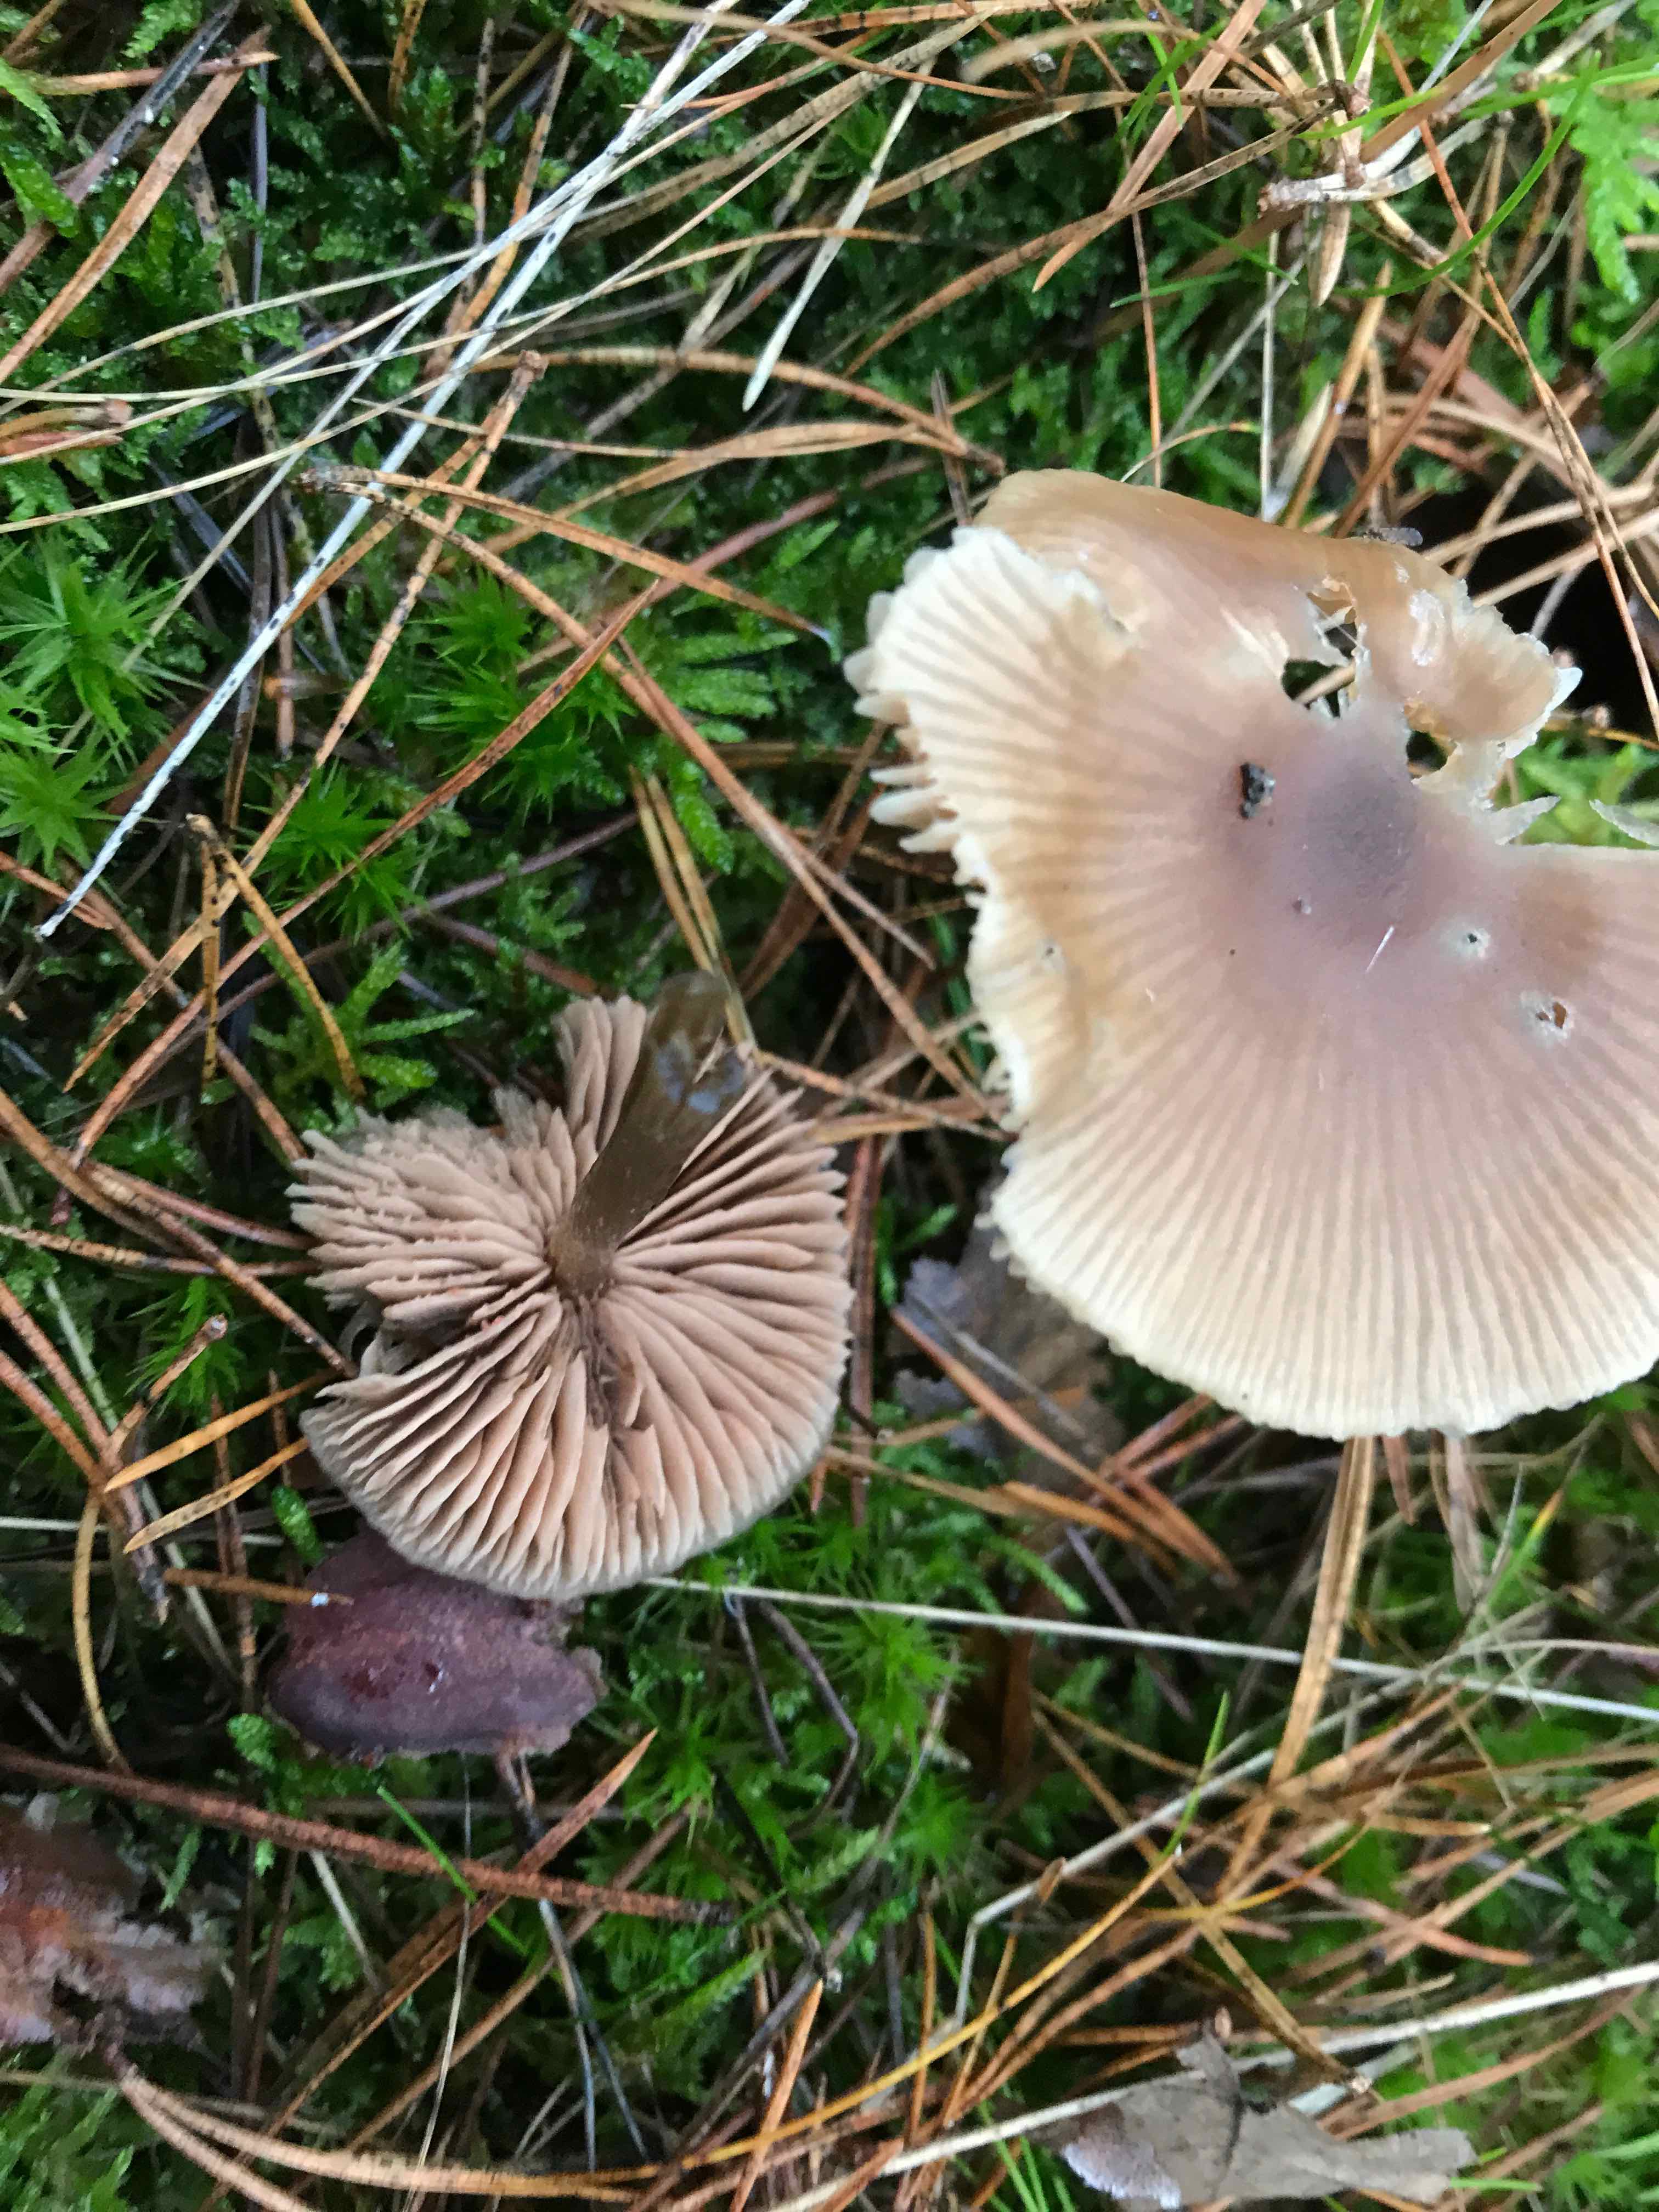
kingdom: Fungi
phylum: Basidiomycota
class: Agaricomycetes
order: Agaricales
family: Entolomataceae
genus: Entoloma
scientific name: Entoloma
